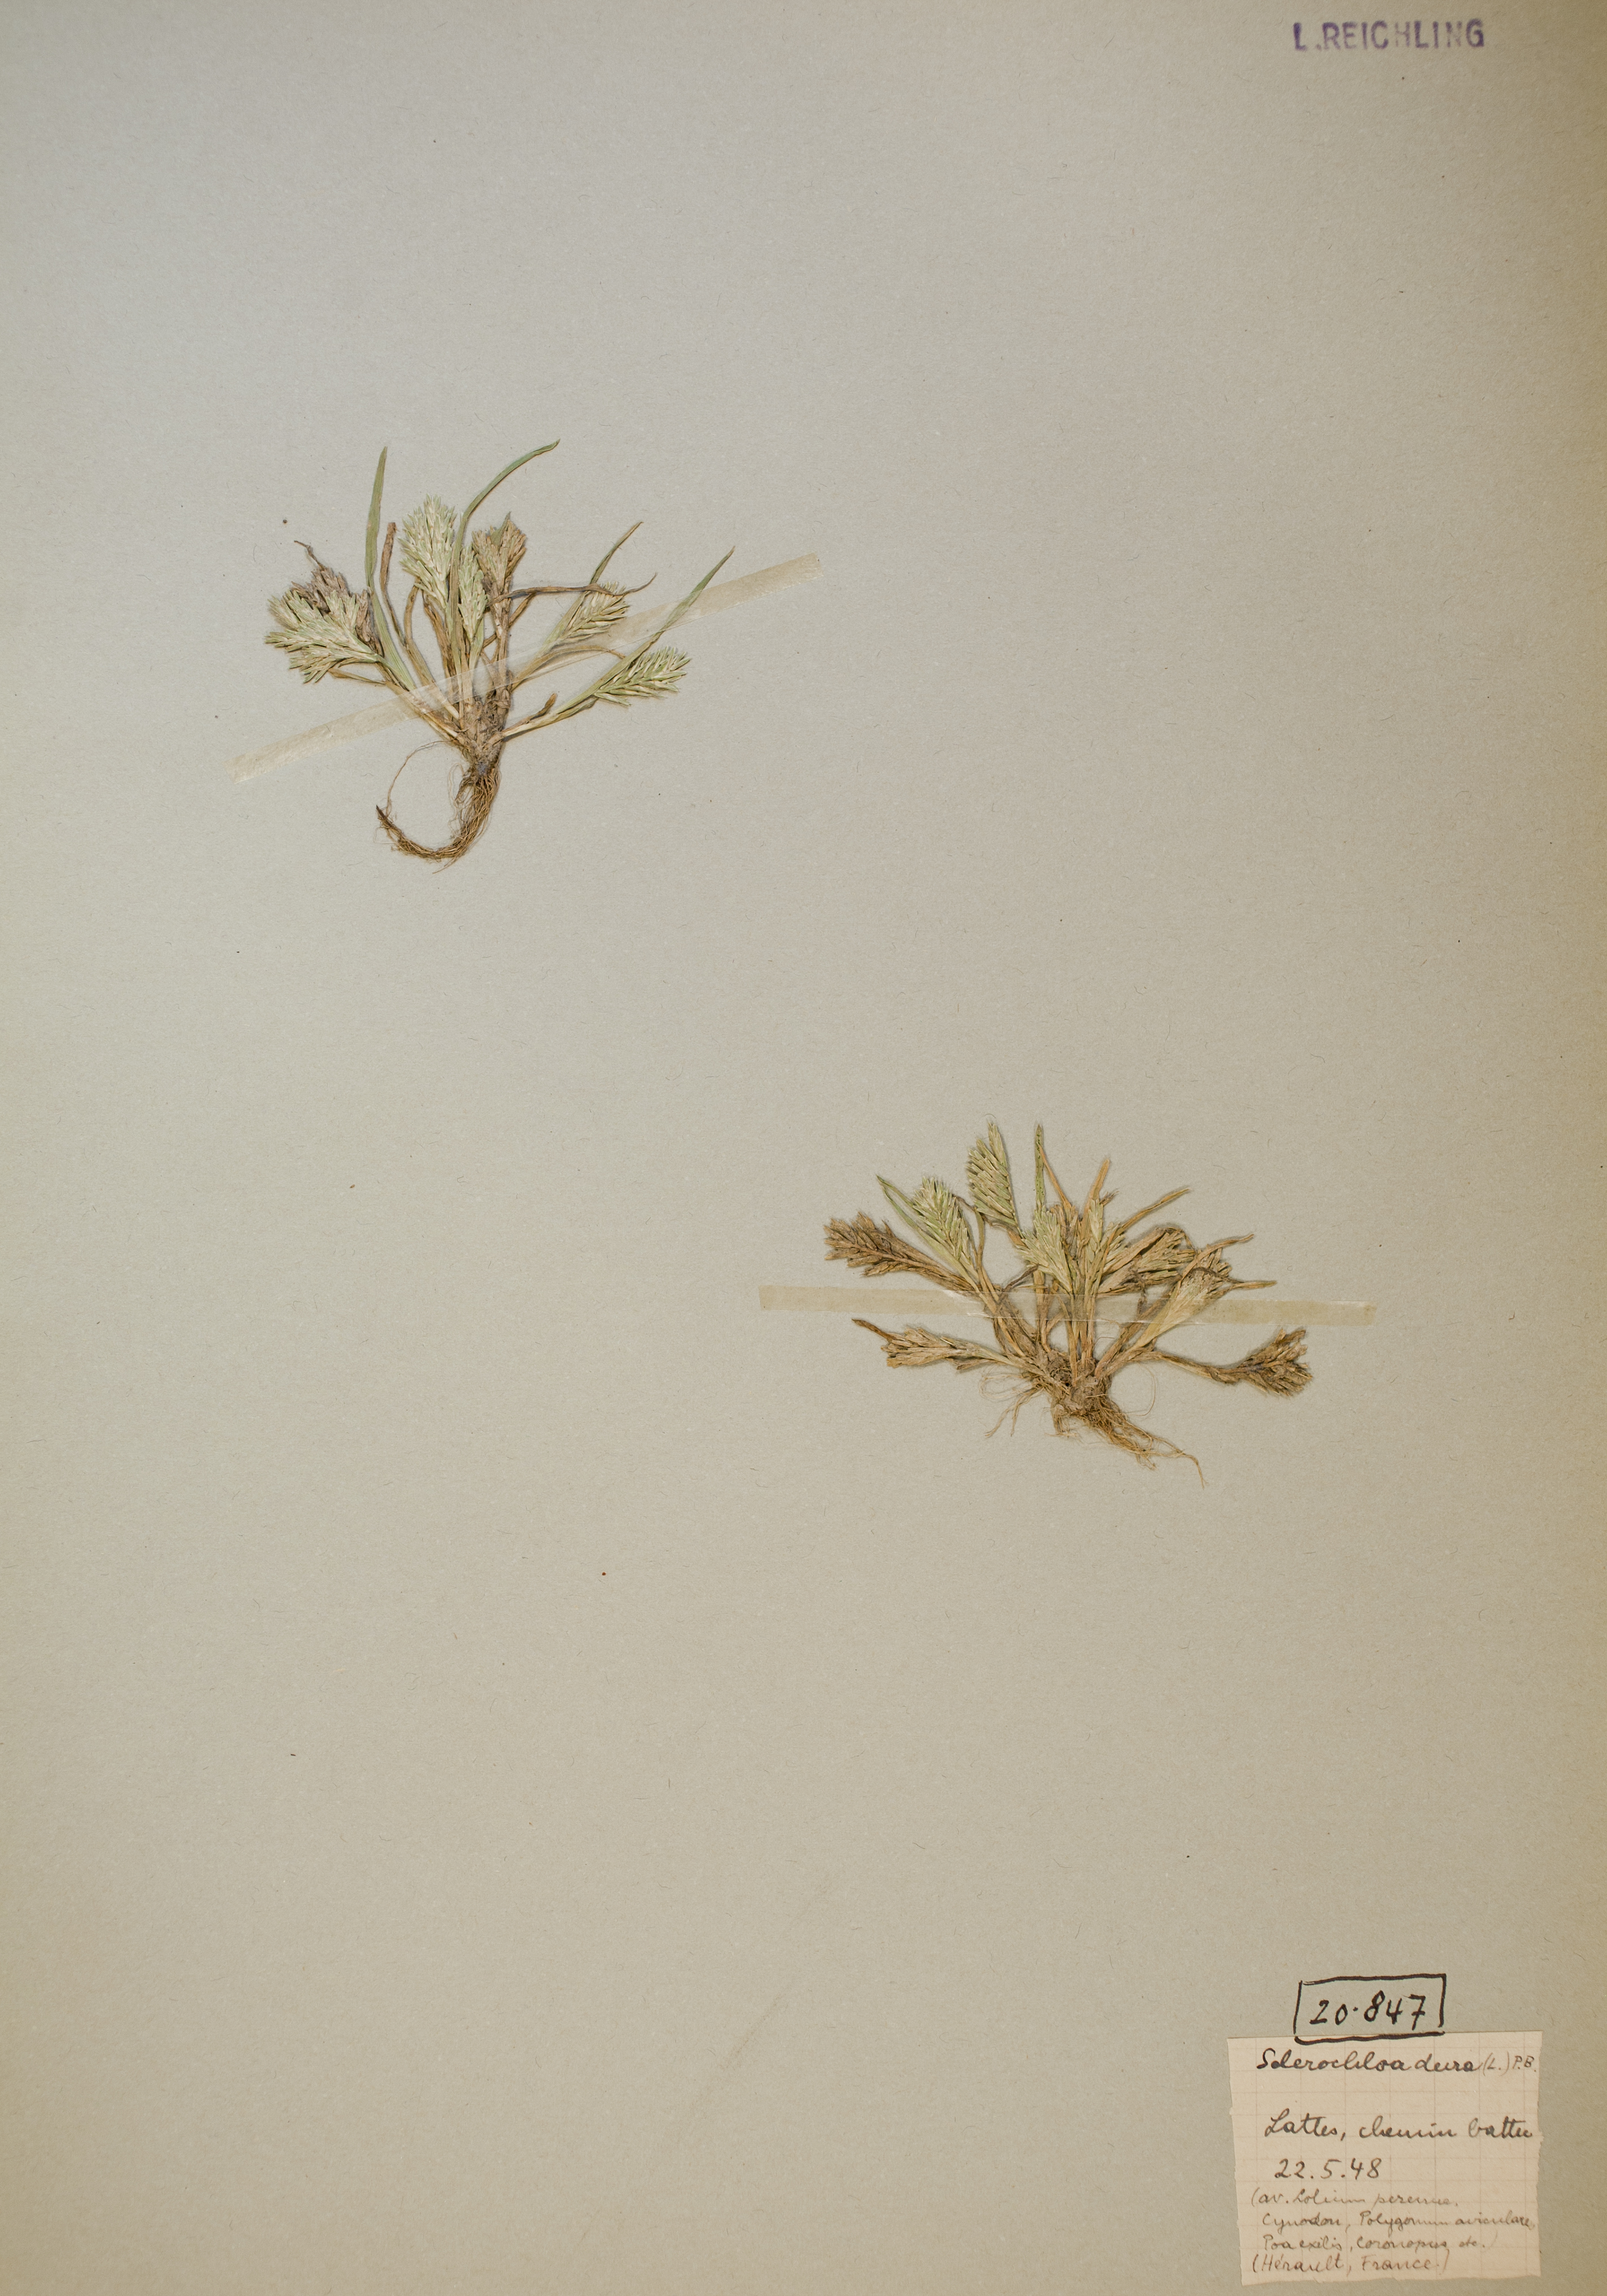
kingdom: Plantae
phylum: Tracheophyta
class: Liliopsida
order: Poales
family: Poaceae
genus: Sclerochloa
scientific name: Sclerochloa dura
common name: Common hardgrass
